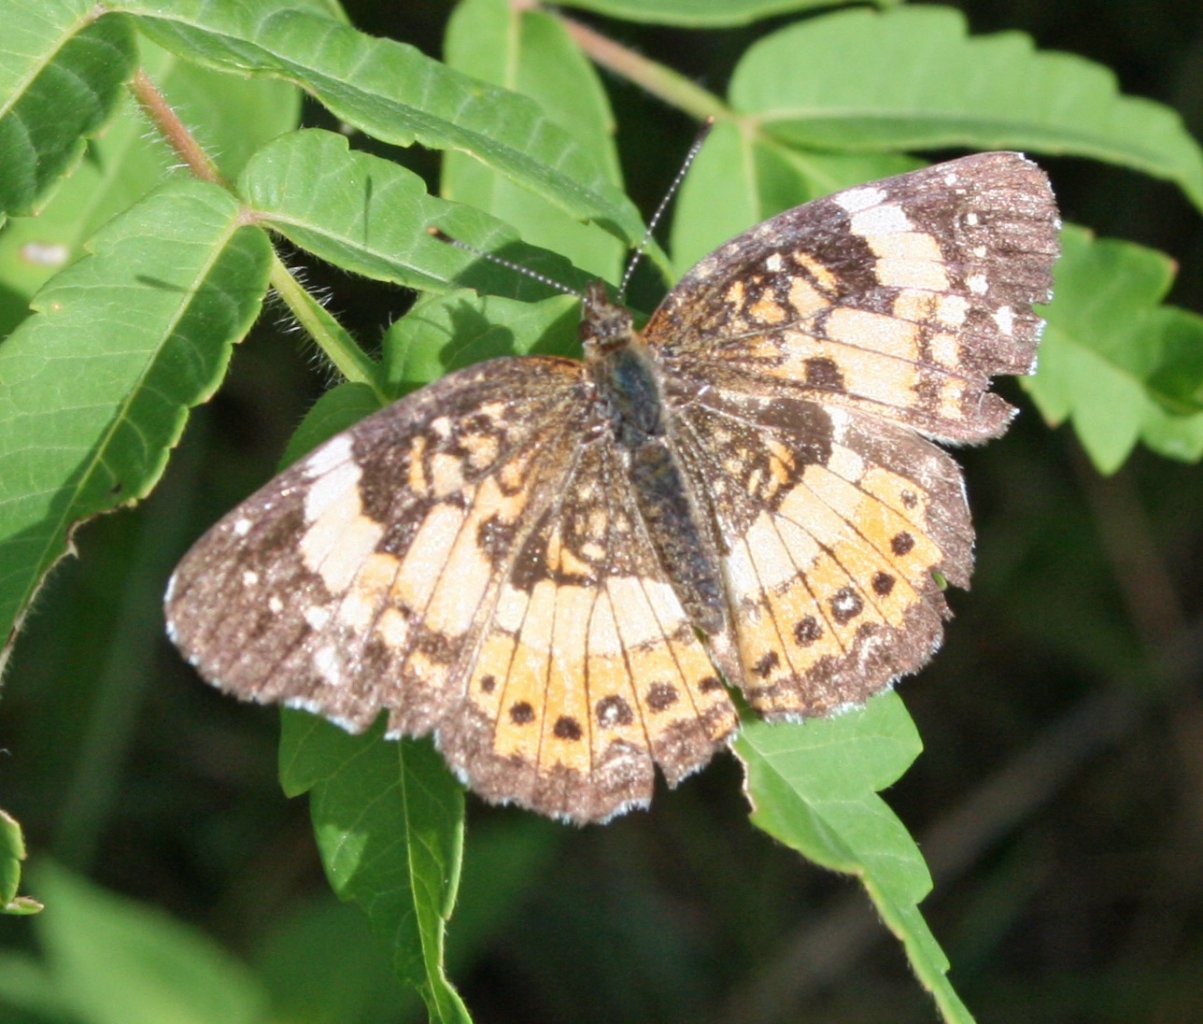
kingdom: Animalia
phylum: Arthropoda
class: Insecta
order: Lepidoptera
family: Nymphalidae
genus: Chlosyne
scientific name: Chlosyne nycteis
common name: Silvery Checkerspot
